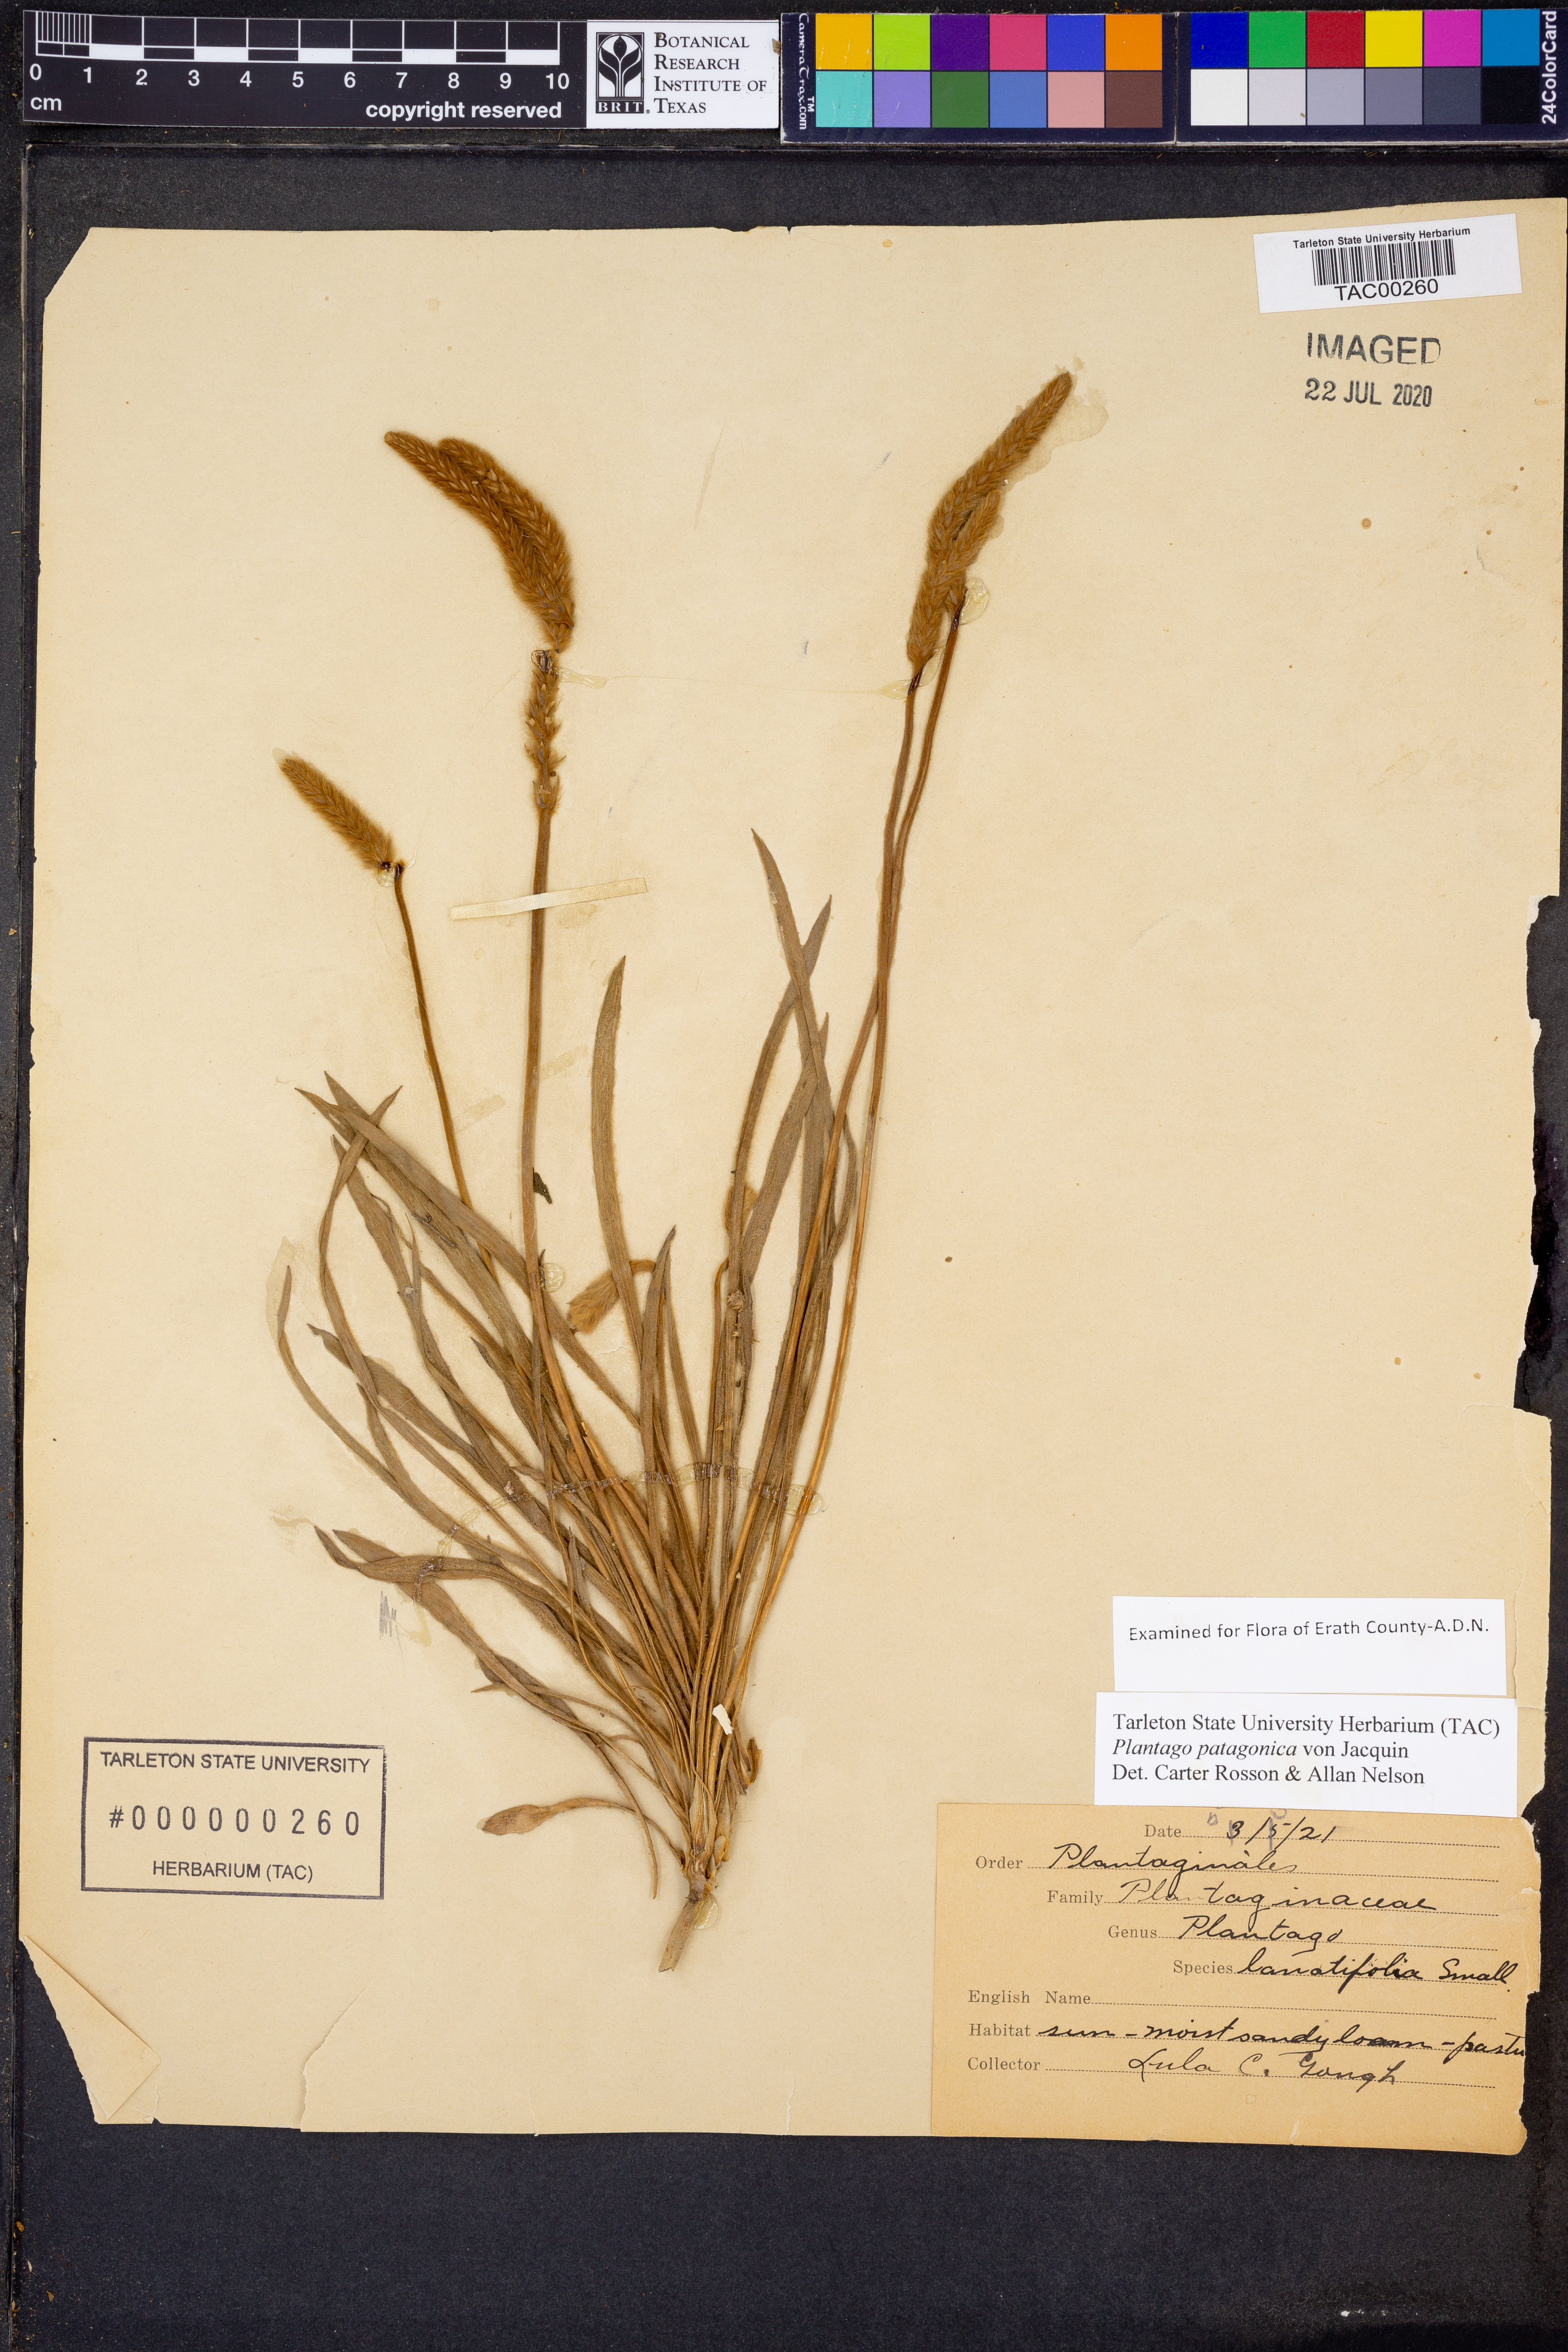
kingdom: Plantae
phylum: Tracheophyta
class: Magnoliopsida
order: Lamiales
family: Plantaginaceae
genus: Plantago
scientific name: Plantago patagonica
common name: Patagonia indian-wheat
